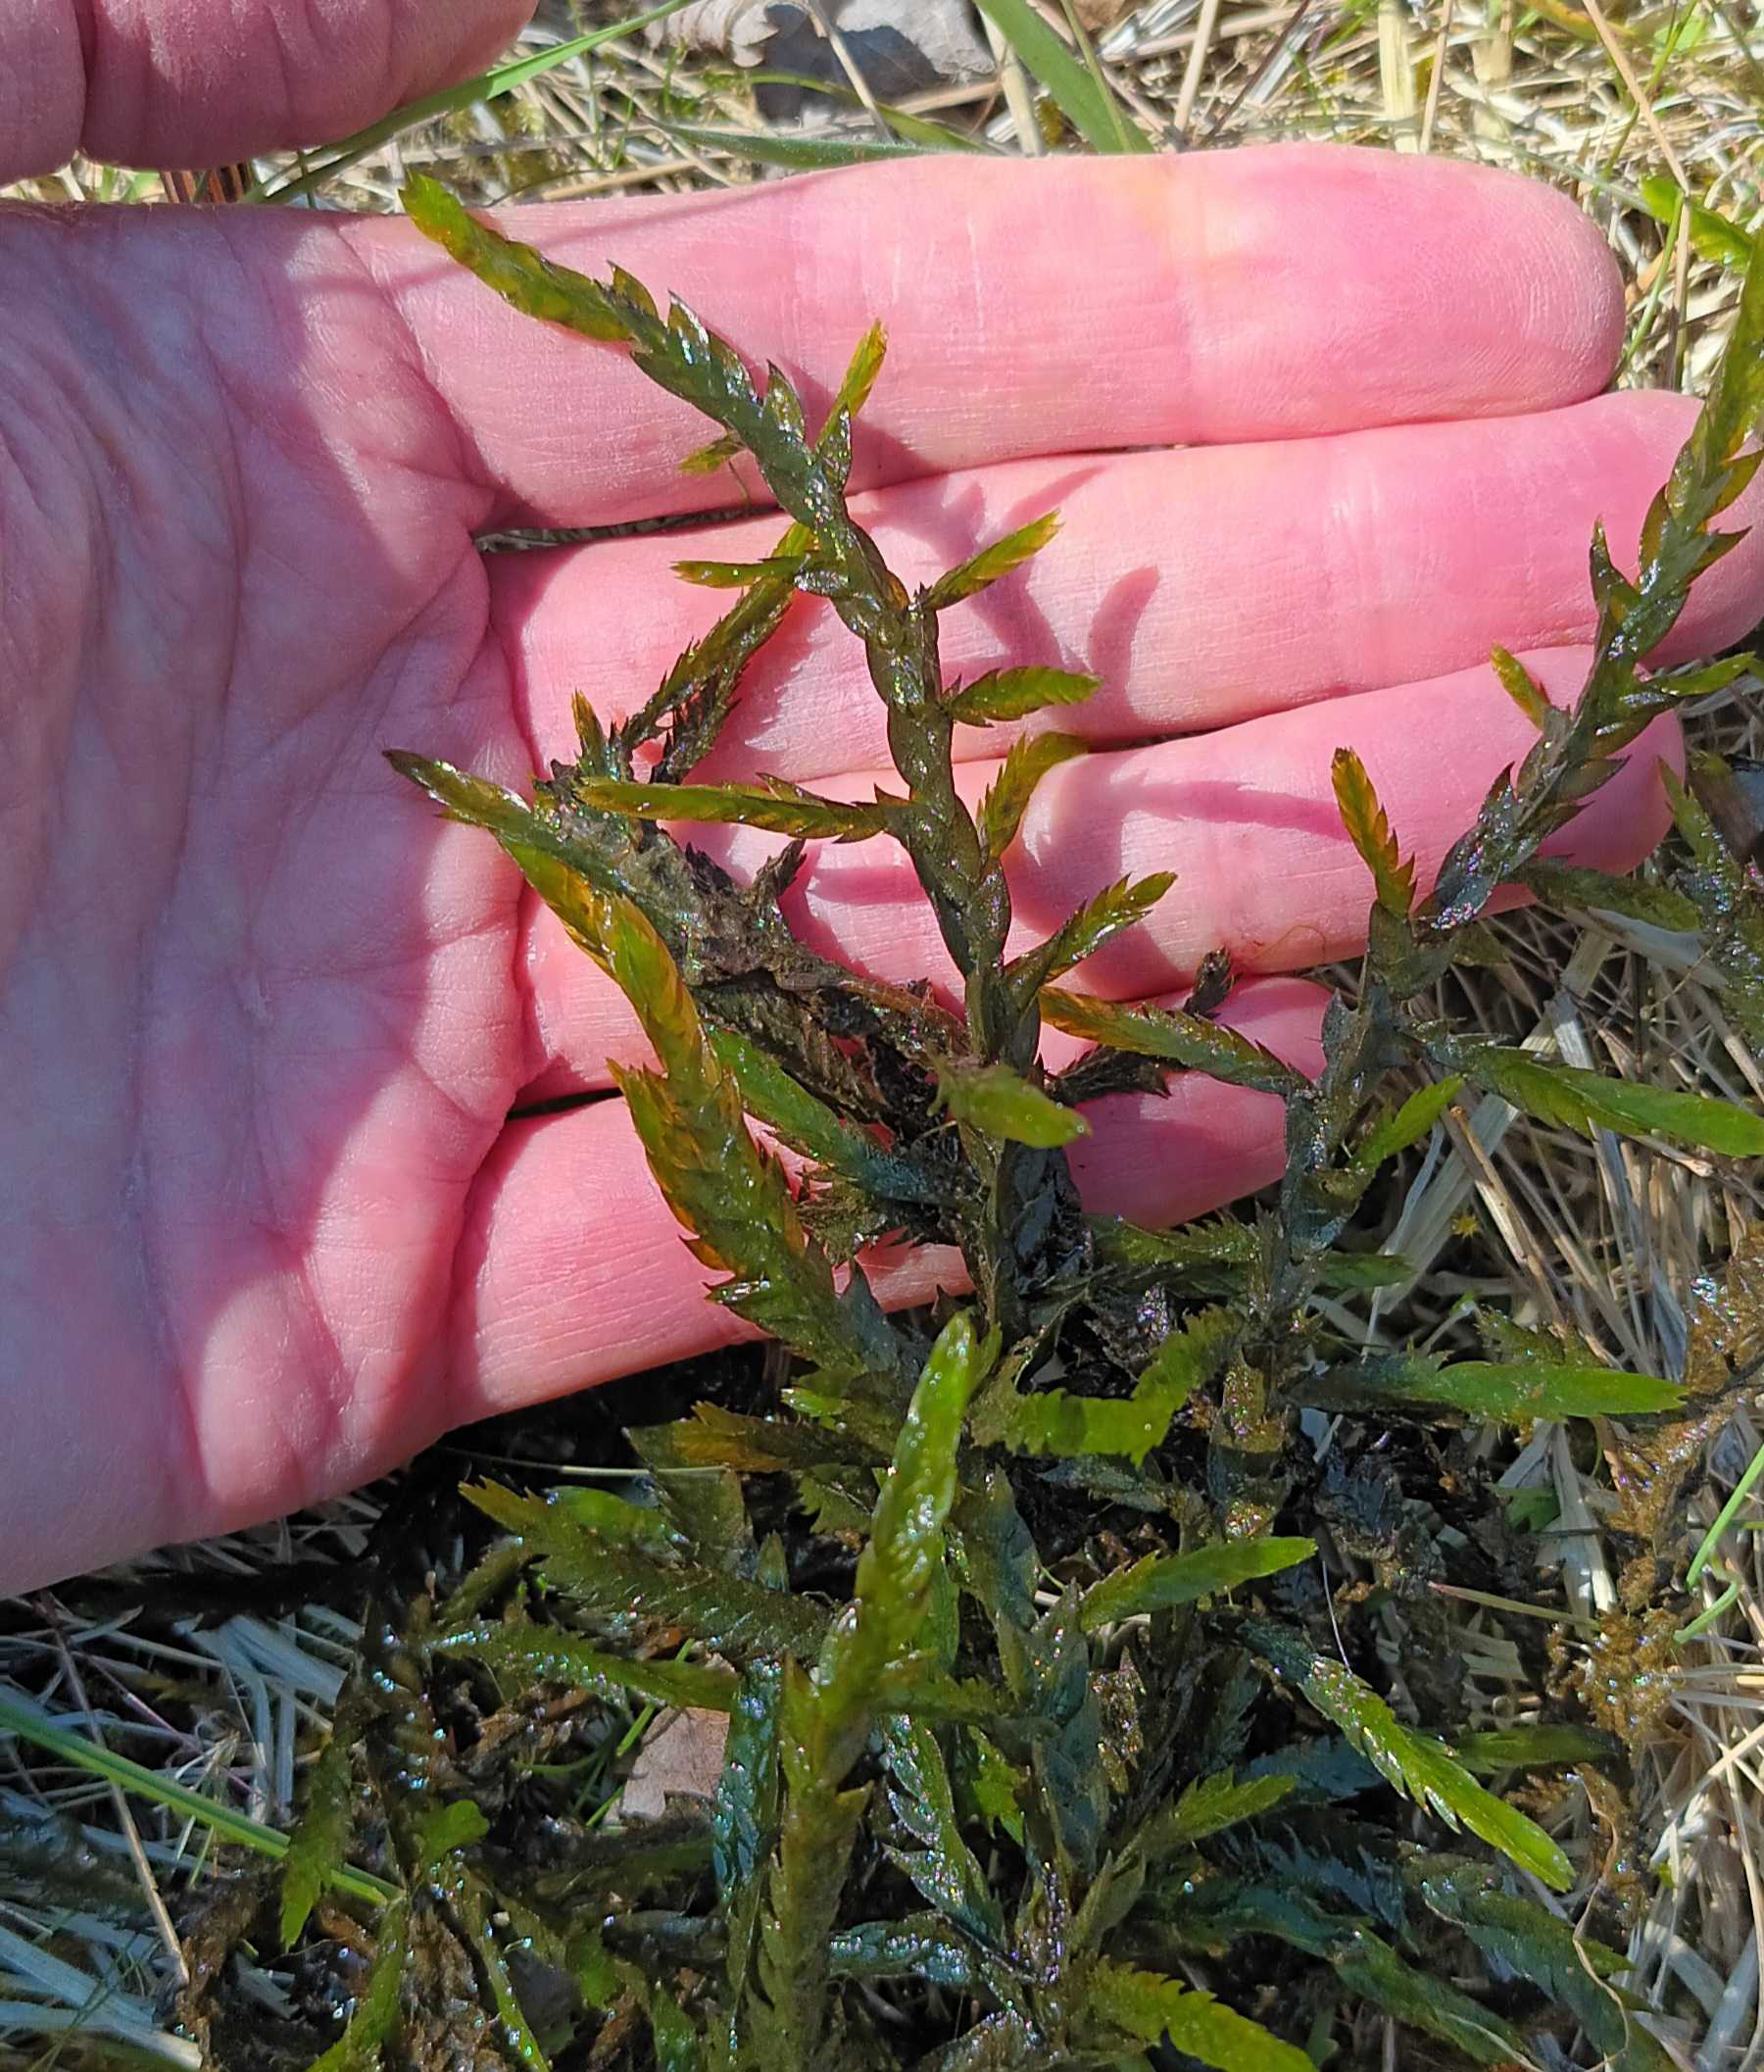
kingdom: Plantae
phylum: Bryophyta
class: Bryopsida
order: Hypnales
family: Fontinalaceae
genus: Fontinalis
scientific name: Fontinalis antipyretica
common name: Stor kildemos
